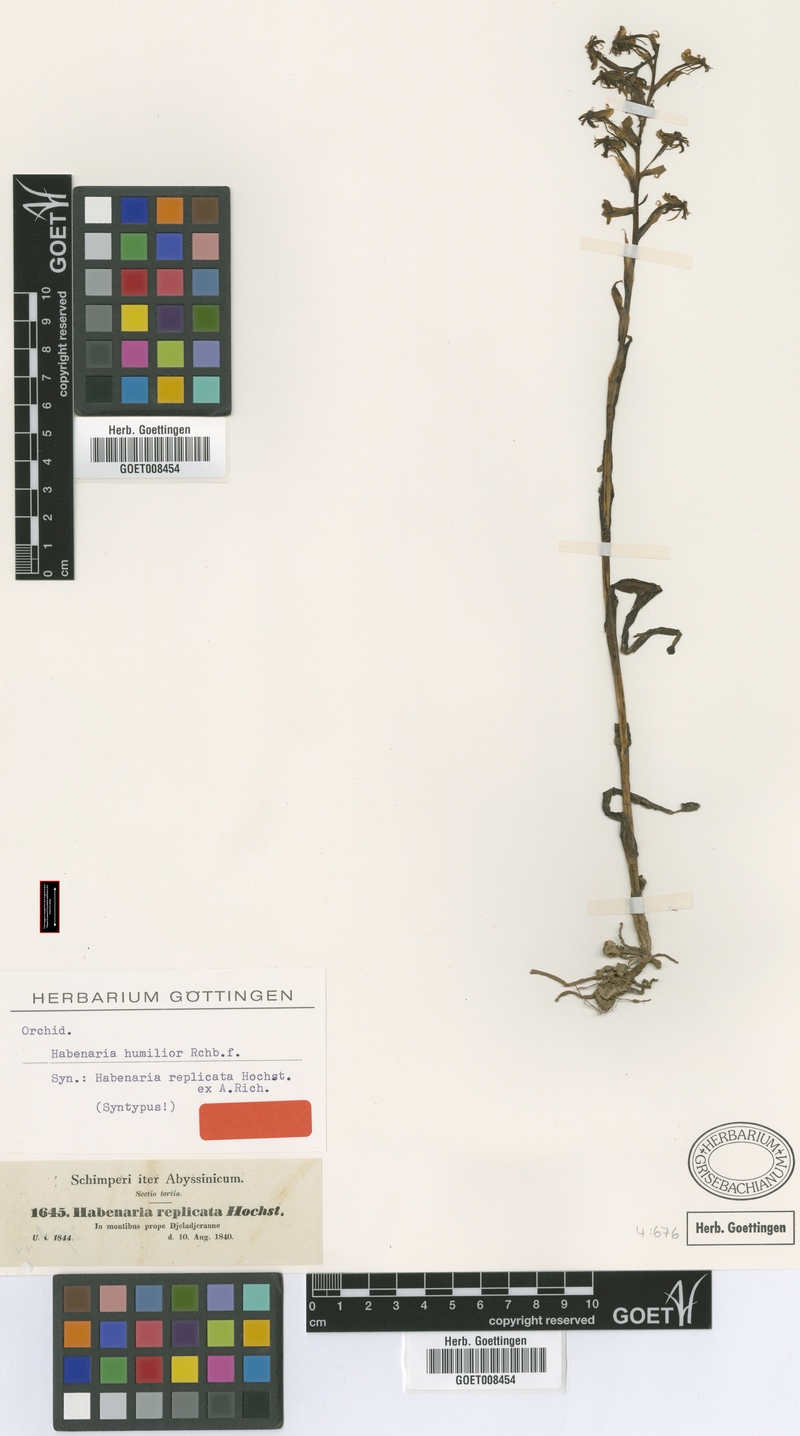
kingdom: Plantae
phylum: Tracheophyta
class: Liliopsida
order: Asparagales
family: Orchidaceae
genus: Habenaria
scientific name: Habenaria humilior
